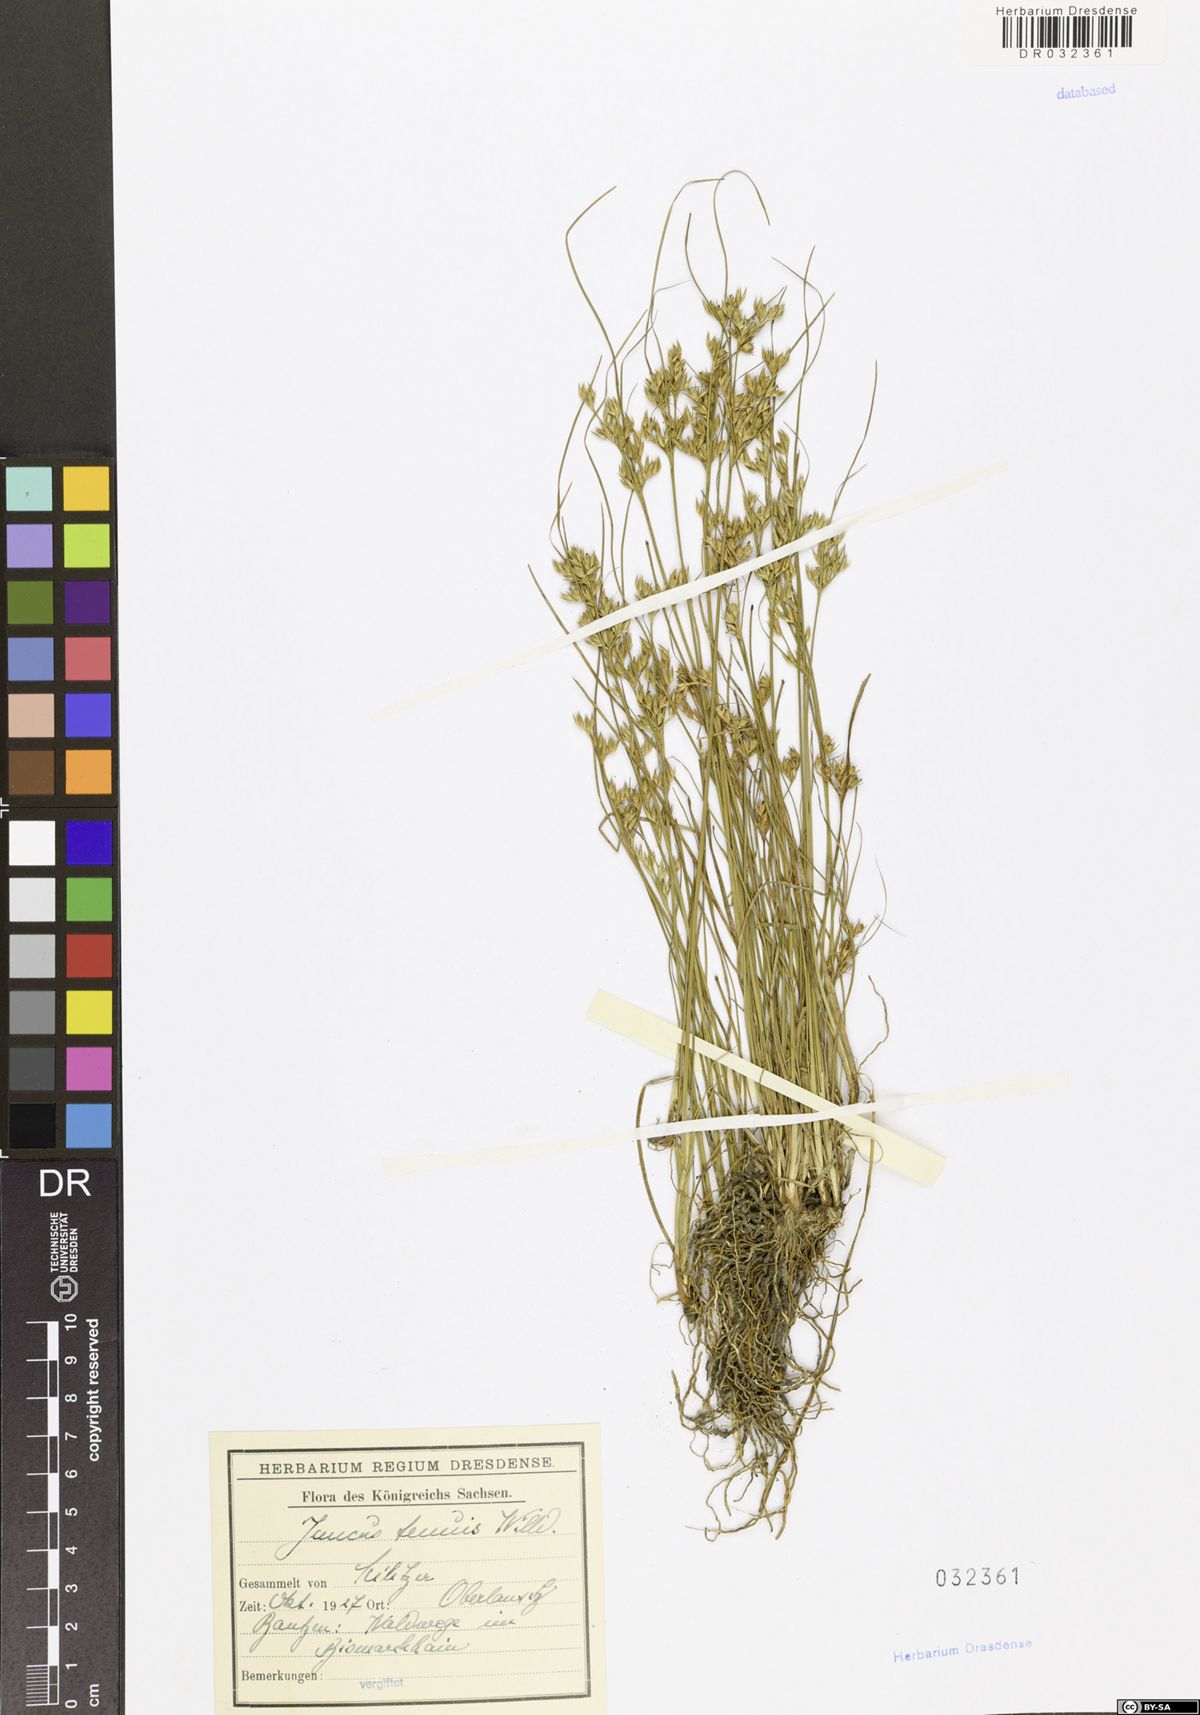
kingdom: Plantae
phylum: Tracheophyta
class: Liliopsida
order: Poales
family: Juncaceae
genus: Juncus
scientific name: Juncus tenuis
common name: Slender rush
